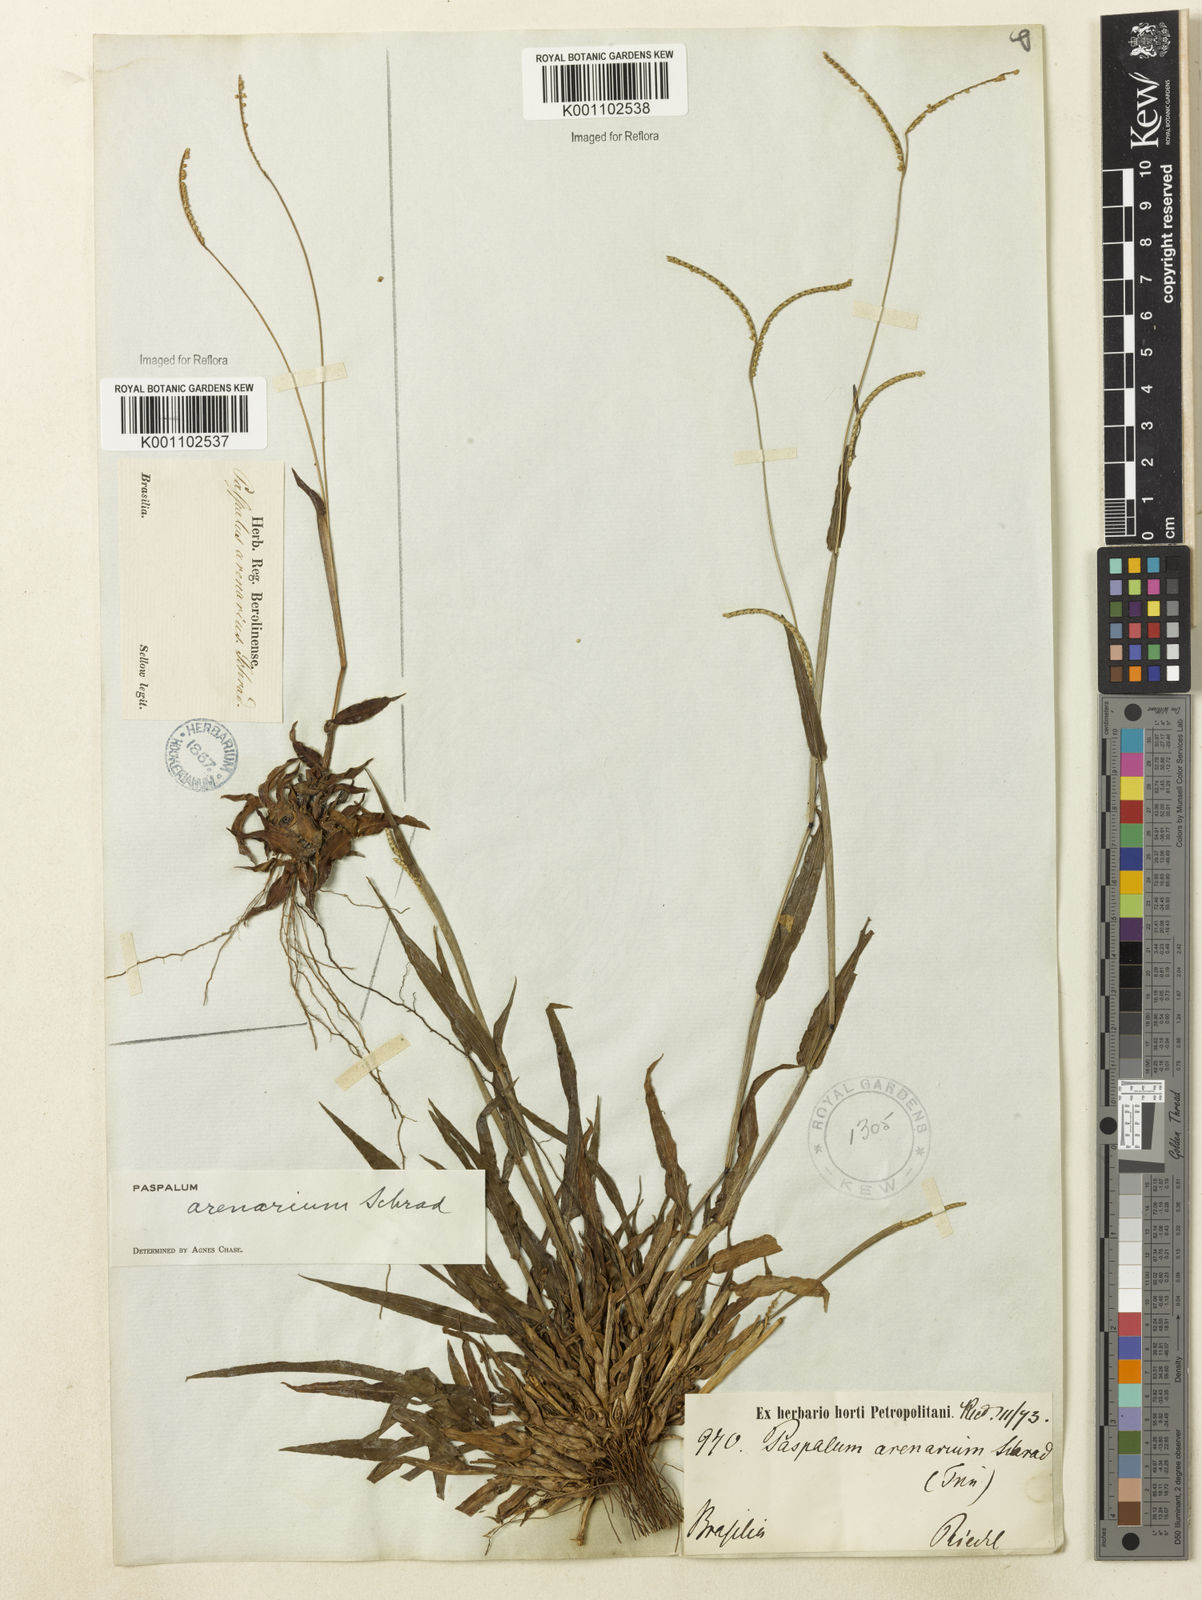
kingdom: Plantae
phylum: Tracheophyta
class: Liliopsida
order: Poales
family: Poaceae
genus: Paspalum
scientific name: Paspalum arenarium
